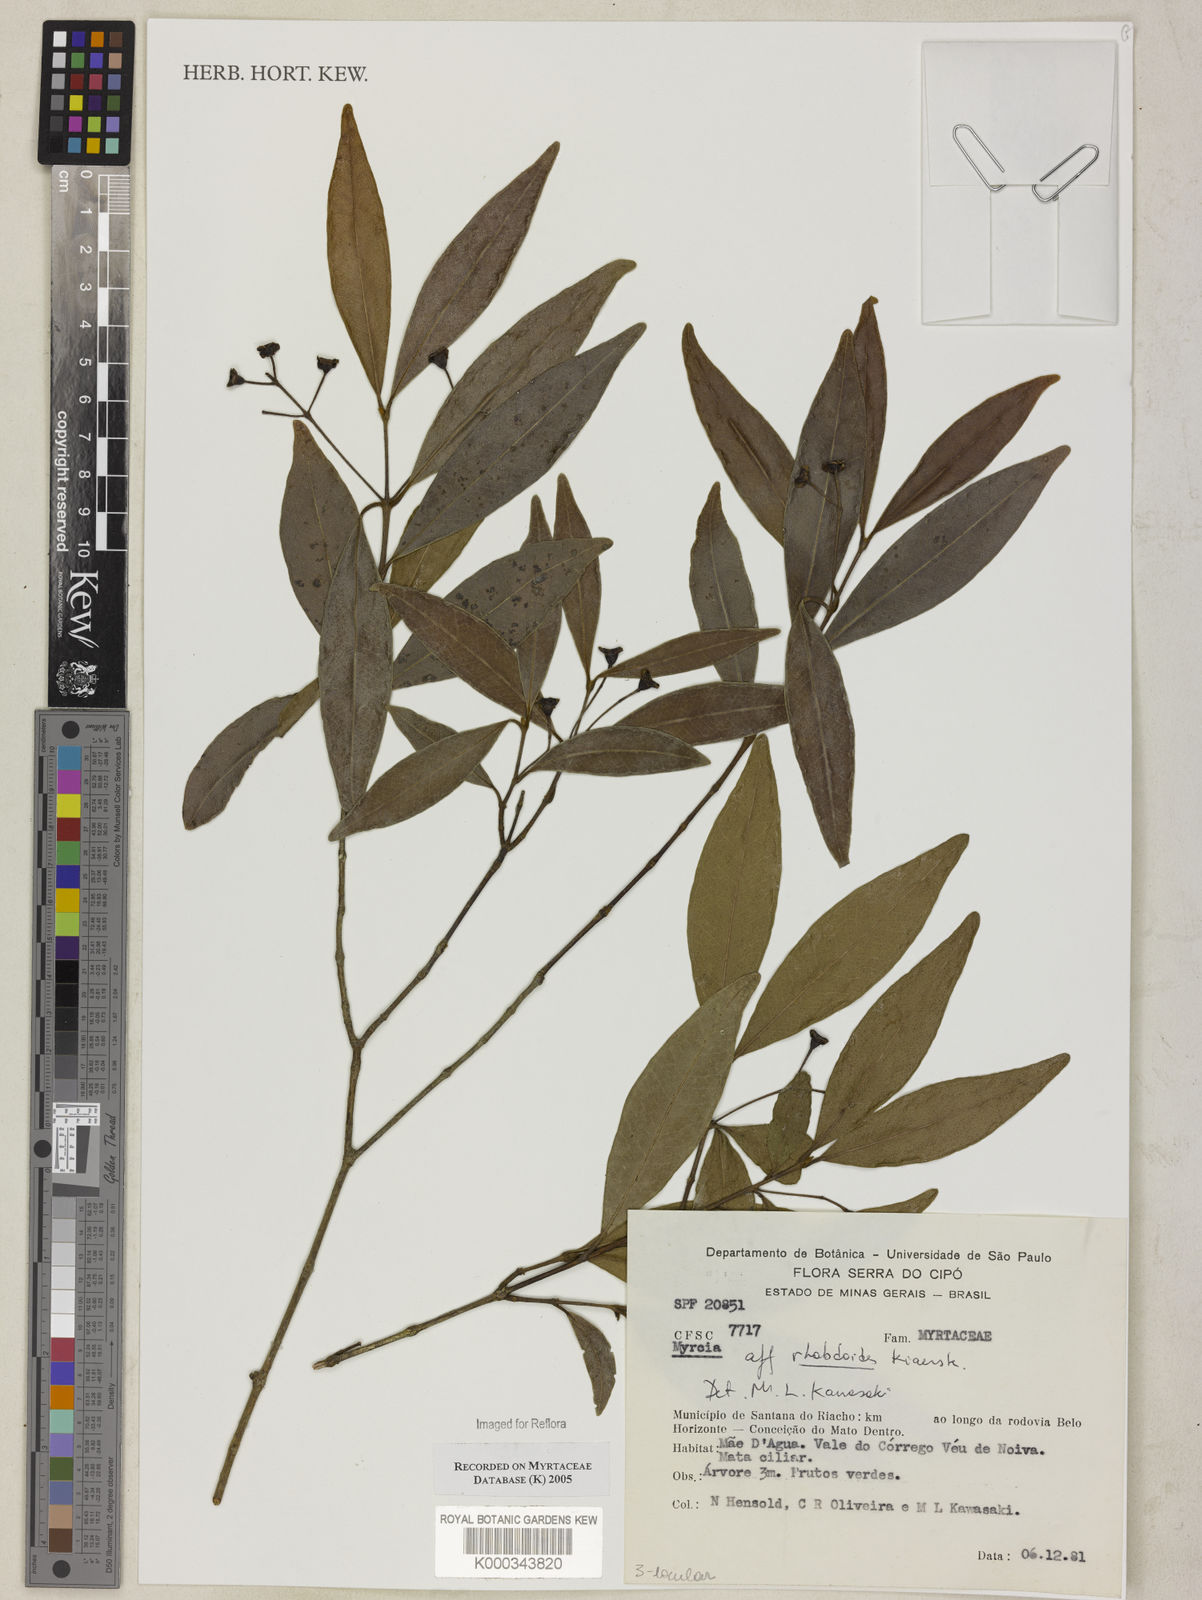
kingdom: Plantae
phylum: Tracheophyta
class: Magnoliopsida
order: Myrtales
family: Myrtaceae
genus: Myrcia
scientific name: Myrcia guianensis
